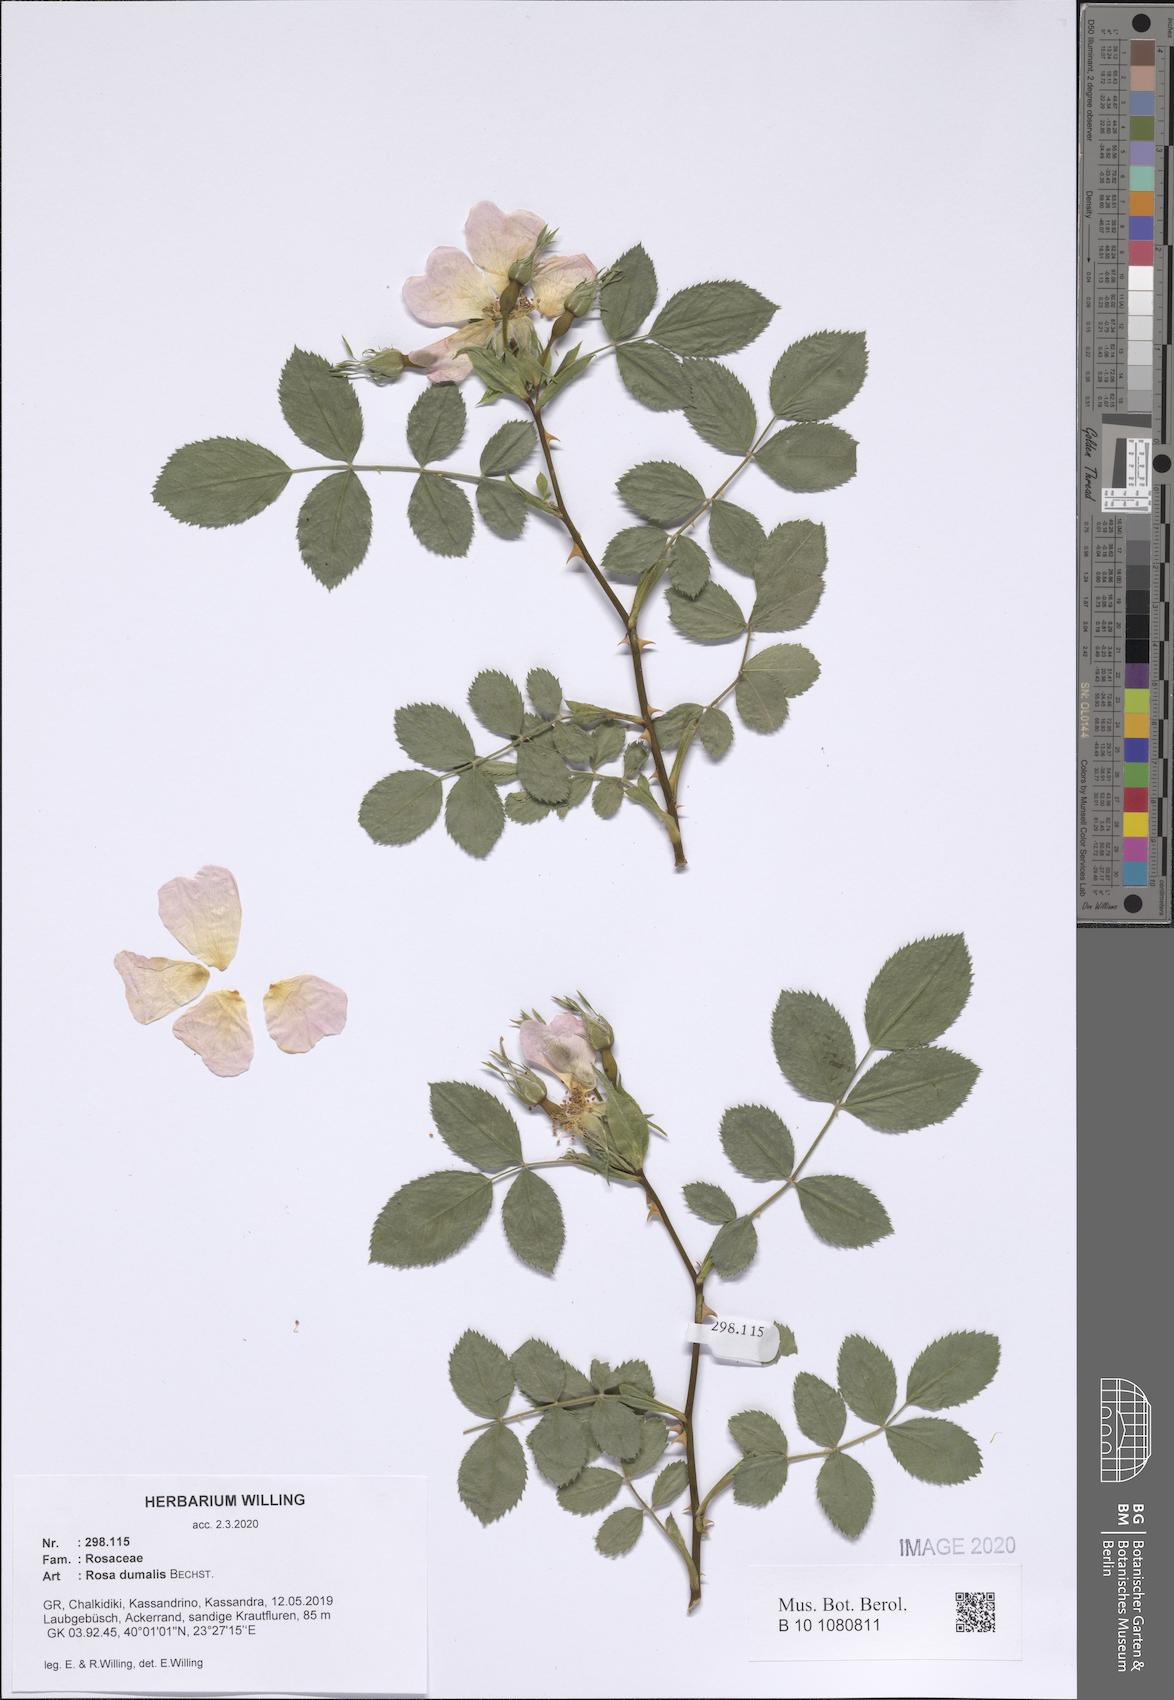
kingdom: Plantae
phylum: Tracheophyta
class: Magnoliopsida
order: Rosales
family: Rosaceae
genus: Rosa
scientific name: Rosa dumalis
